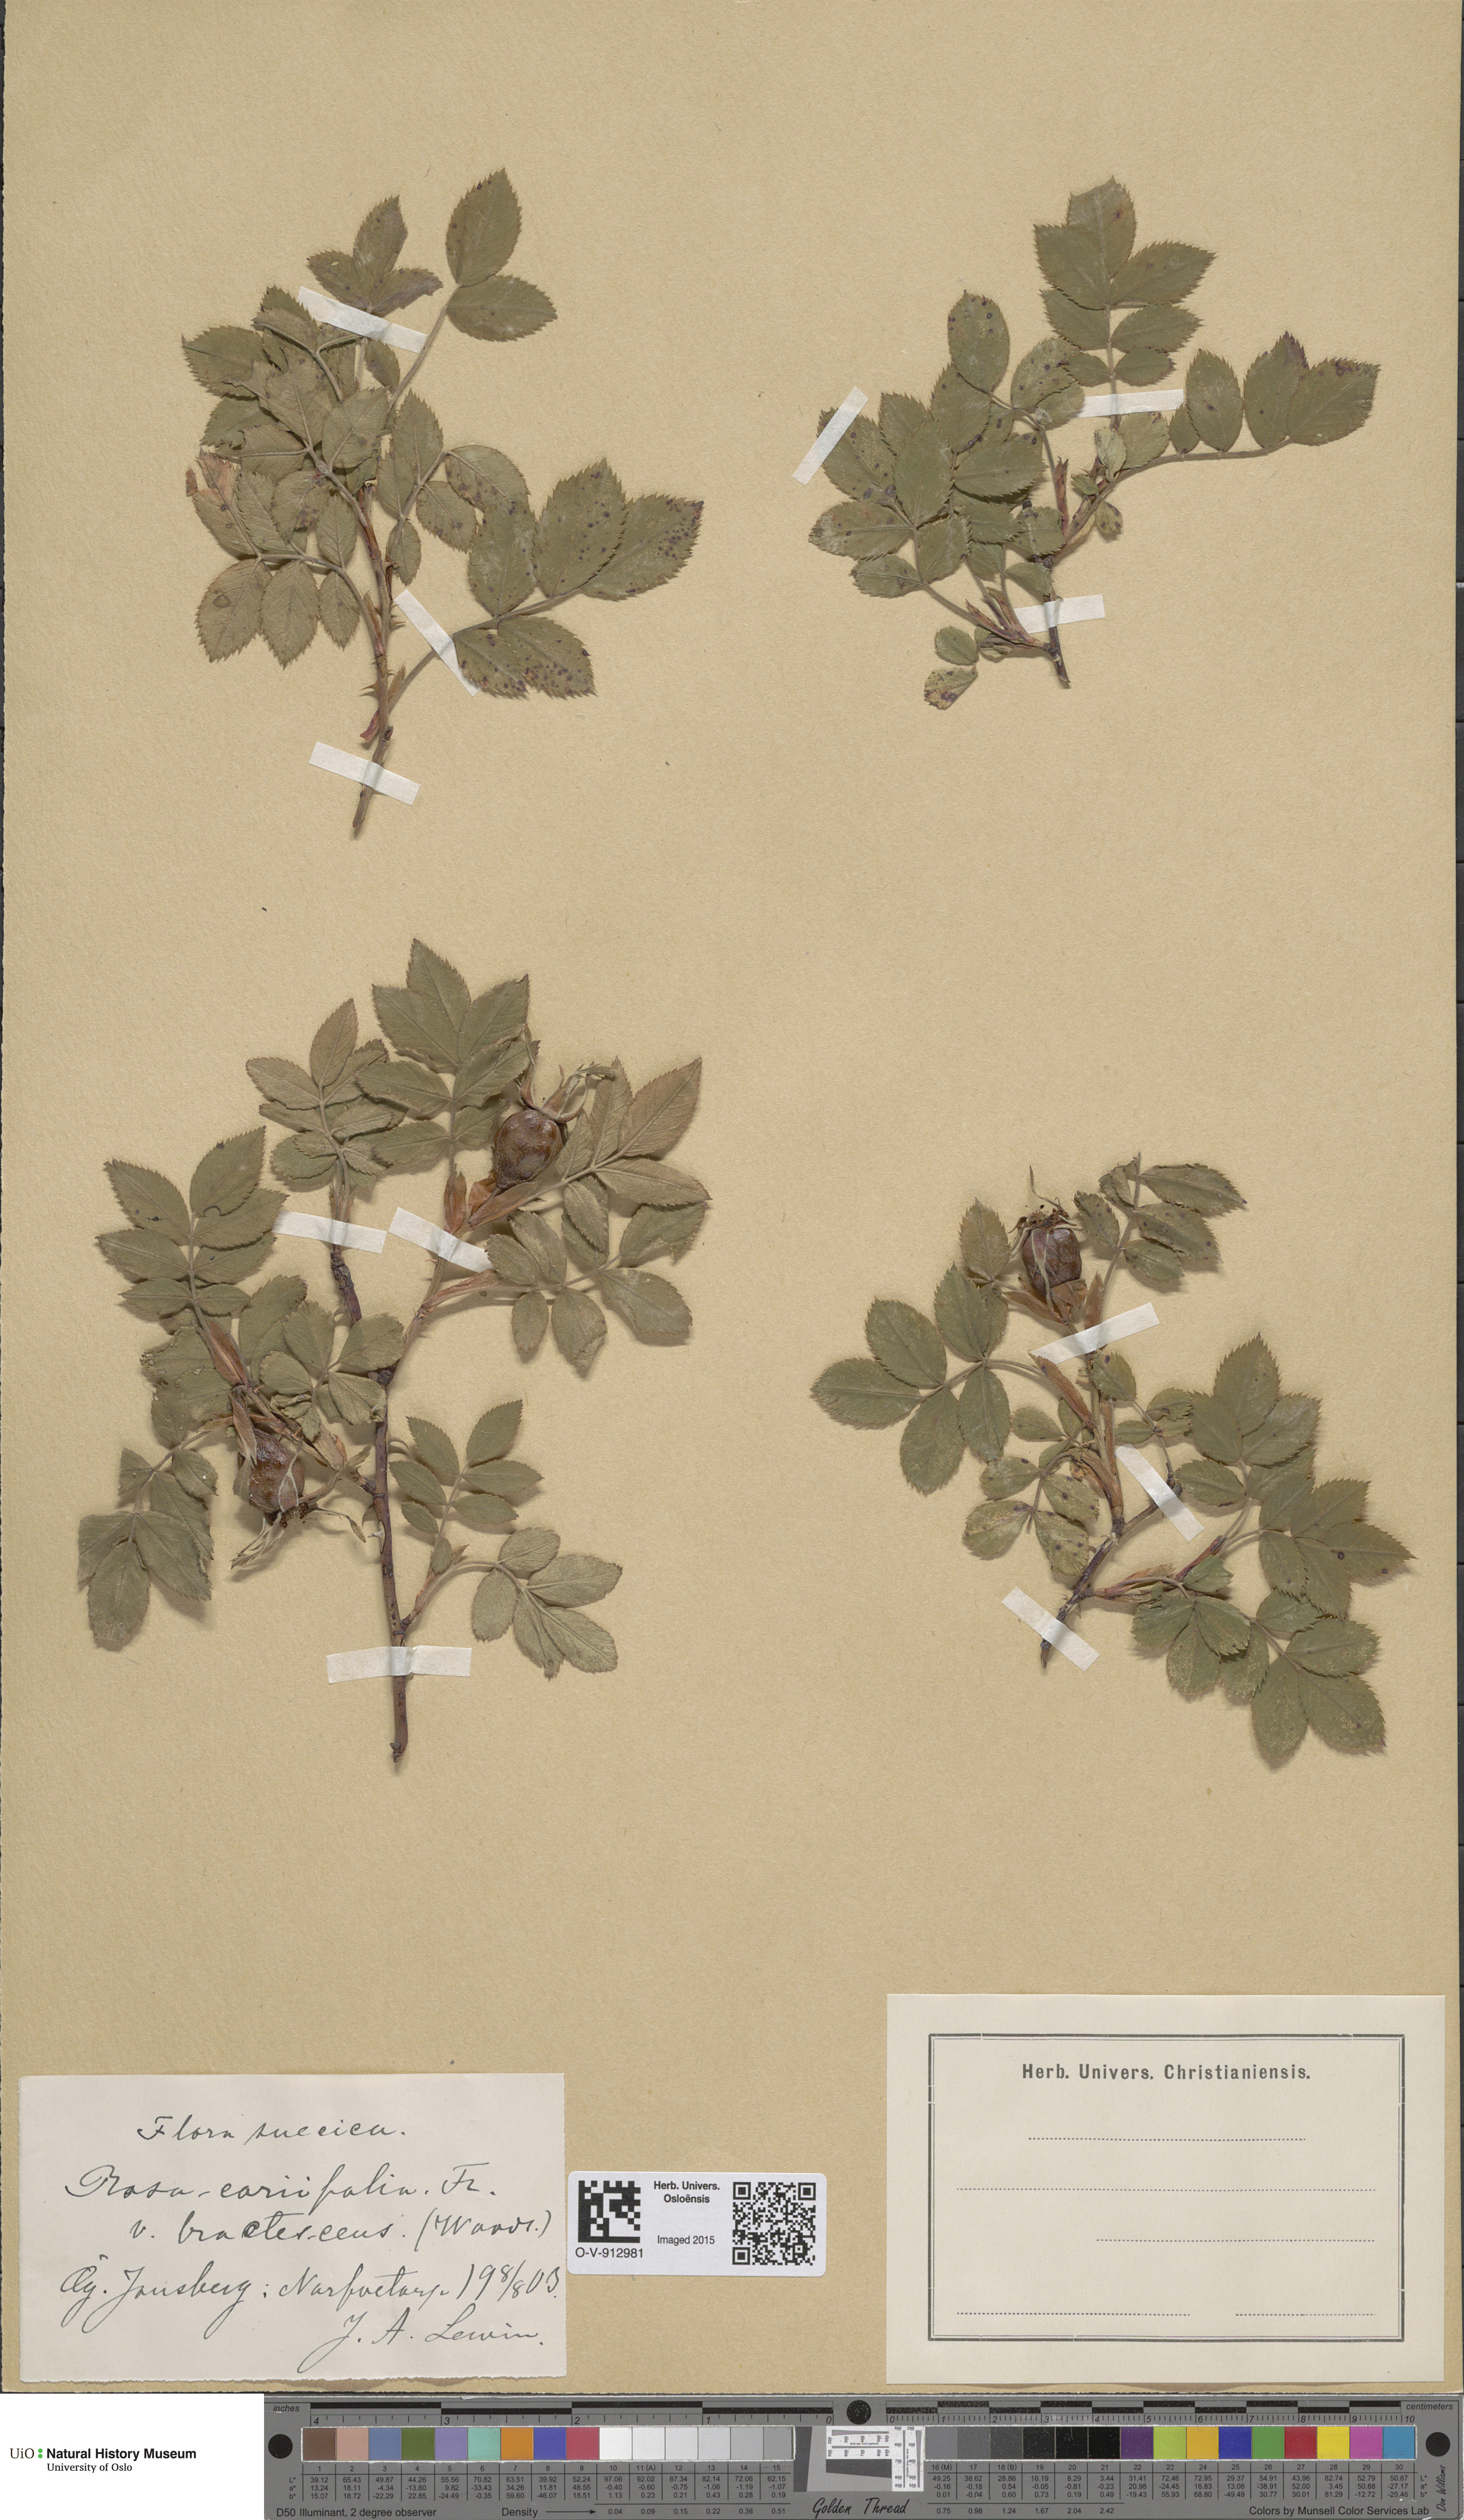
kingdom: Plantae
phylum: Tracheophyta
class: Magnoliopsida
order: Rosales
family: Rosaceae
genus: Rosa
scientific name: Rosa caesia
